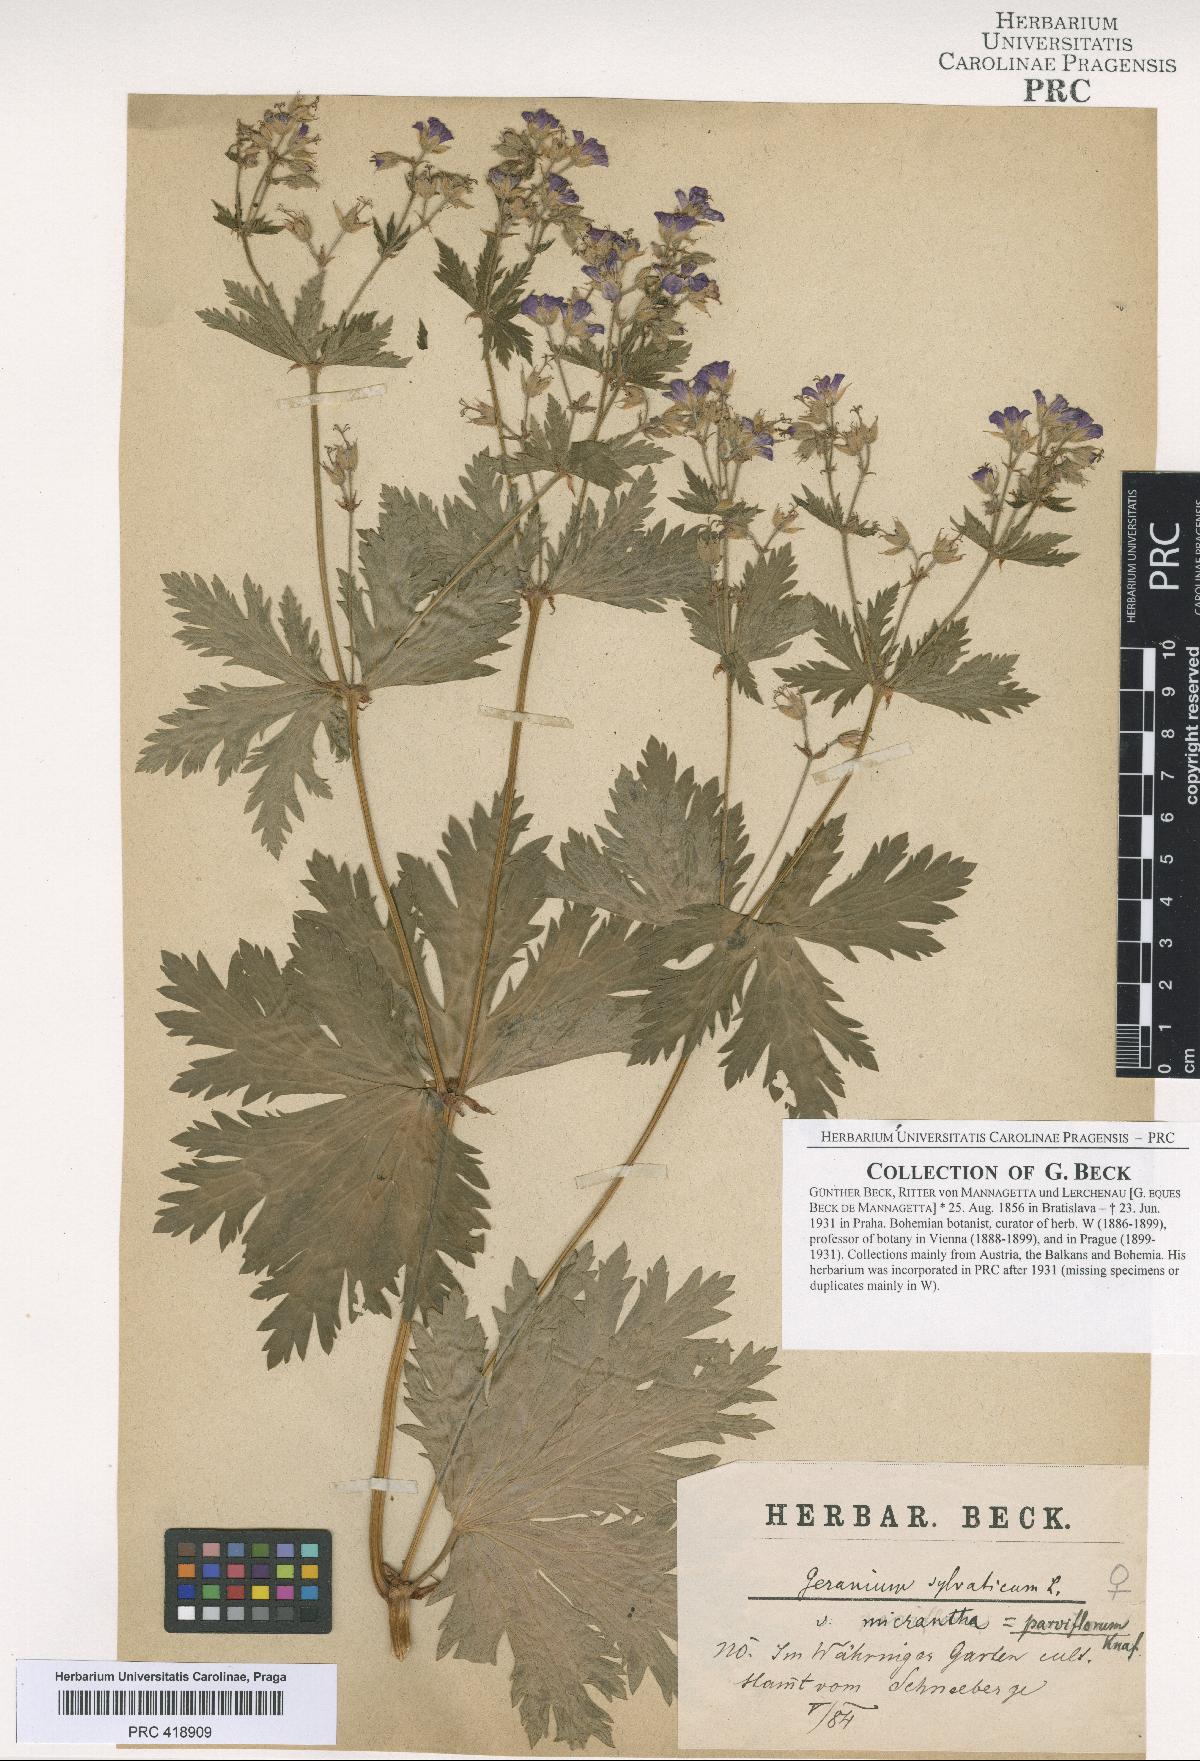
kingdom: Plantae
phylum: Tracheophyta
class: Magnoliopsida
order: Geraniales
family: Geraniaceae
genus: Geranium
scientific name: Geranium sylvaticum
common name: Wood crane's-bill
